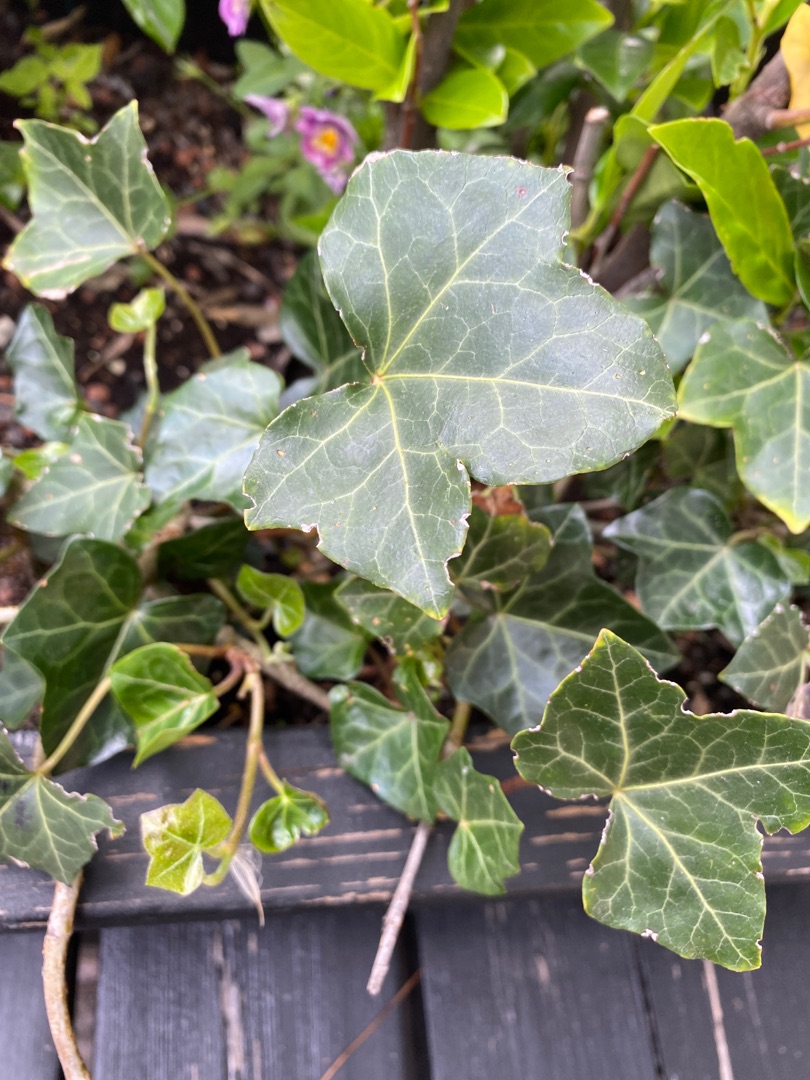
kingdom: Plantae
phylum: Tracheophyta
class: Magnoliopsida
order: Apiales
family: Araliaceae
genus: Hedera
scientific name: Hedera helix
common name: Vedbend
